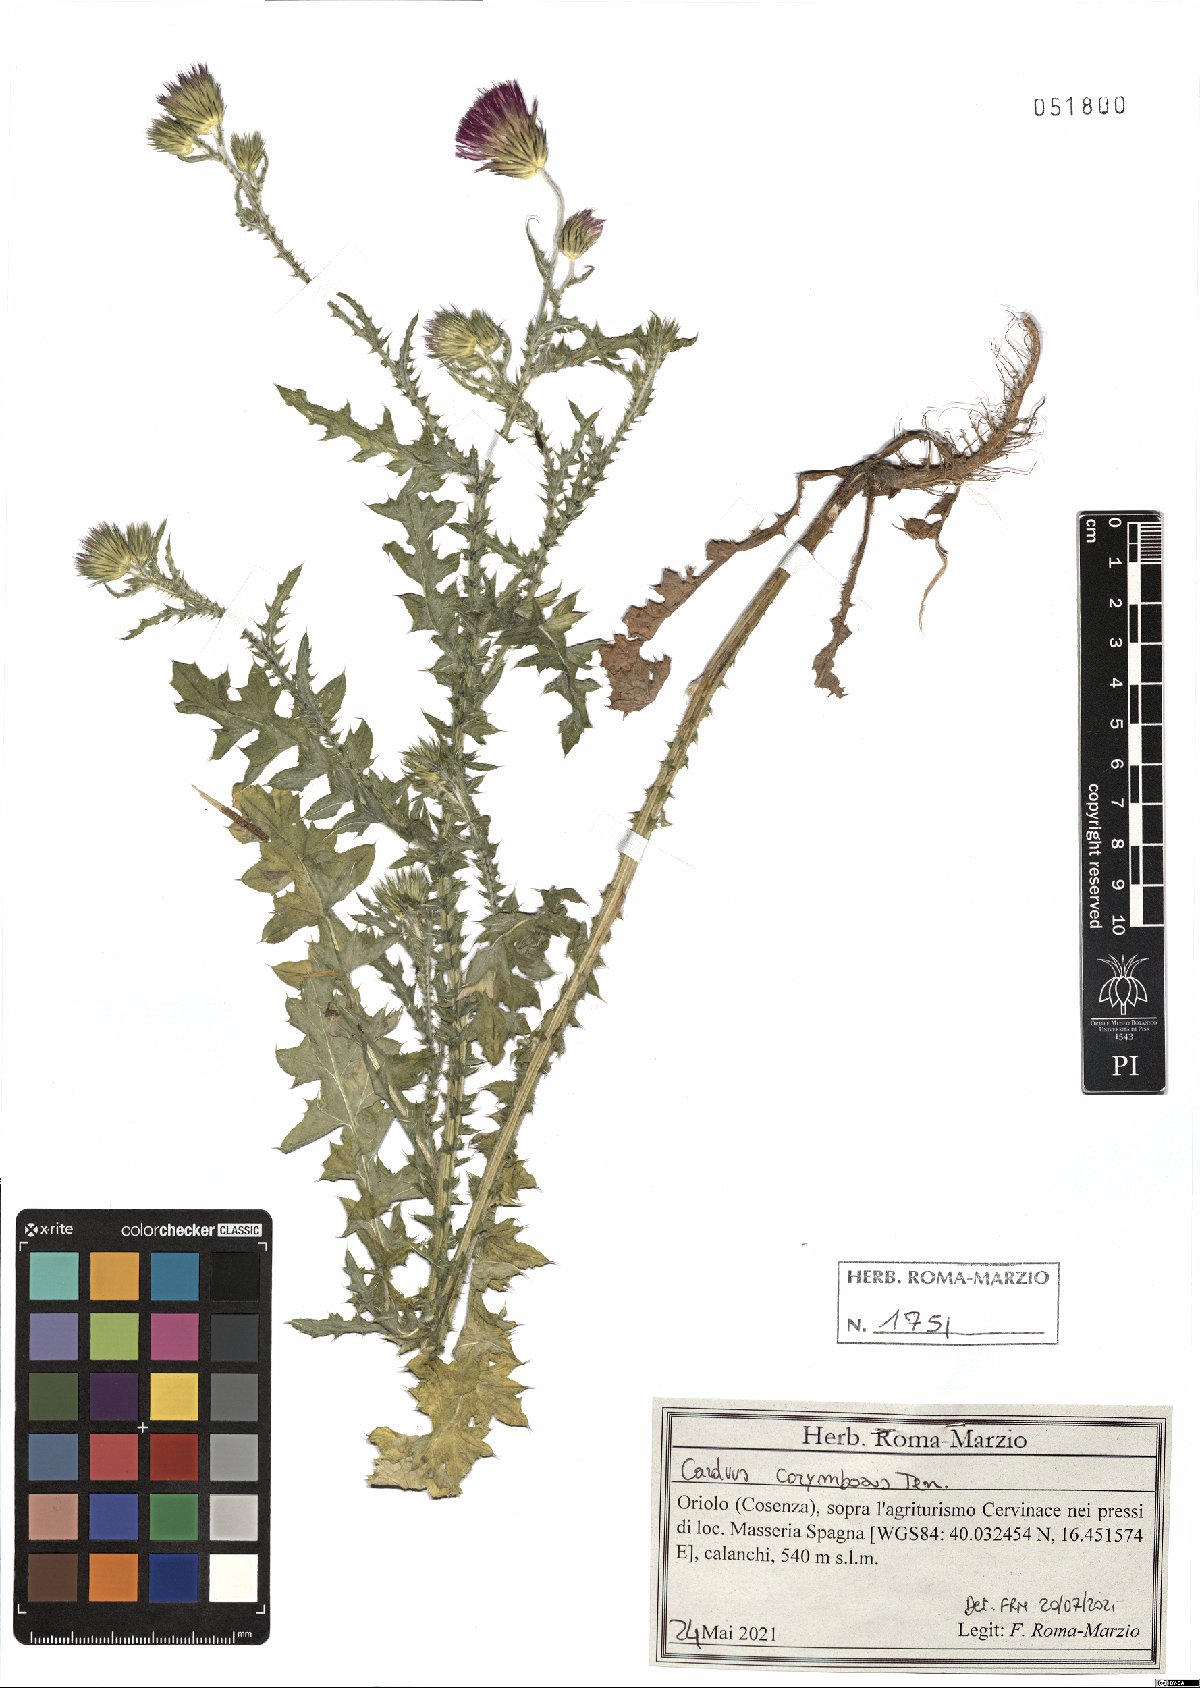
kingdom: Plantae
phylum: Tracheophyta
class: Magnoliopsida
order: Asterales
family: Asteraceae
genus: Carduus
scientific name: Carduus corymbosus
